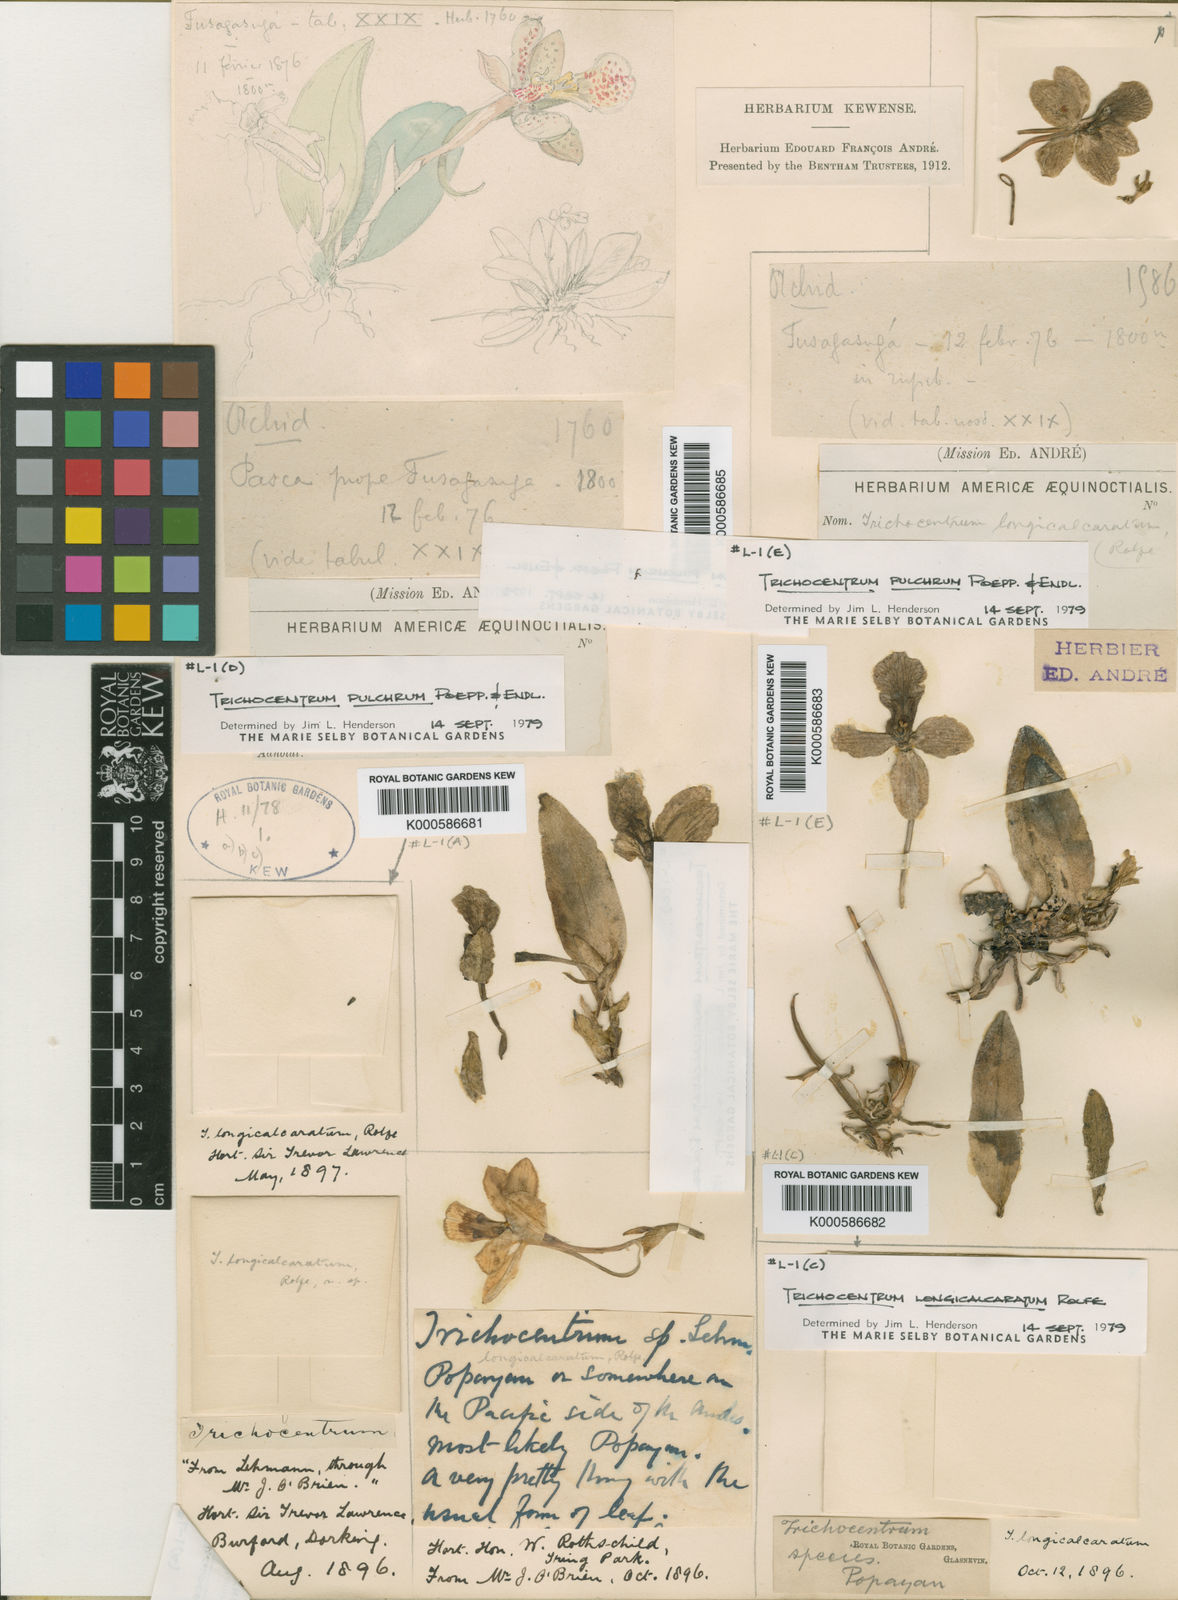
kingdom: Plantae
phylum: Tracheophyta
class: Liliopsida
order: Asparagales
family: Orchidaceae
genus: Trichocentrum
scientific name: Trichocentrum longicalcaratum
